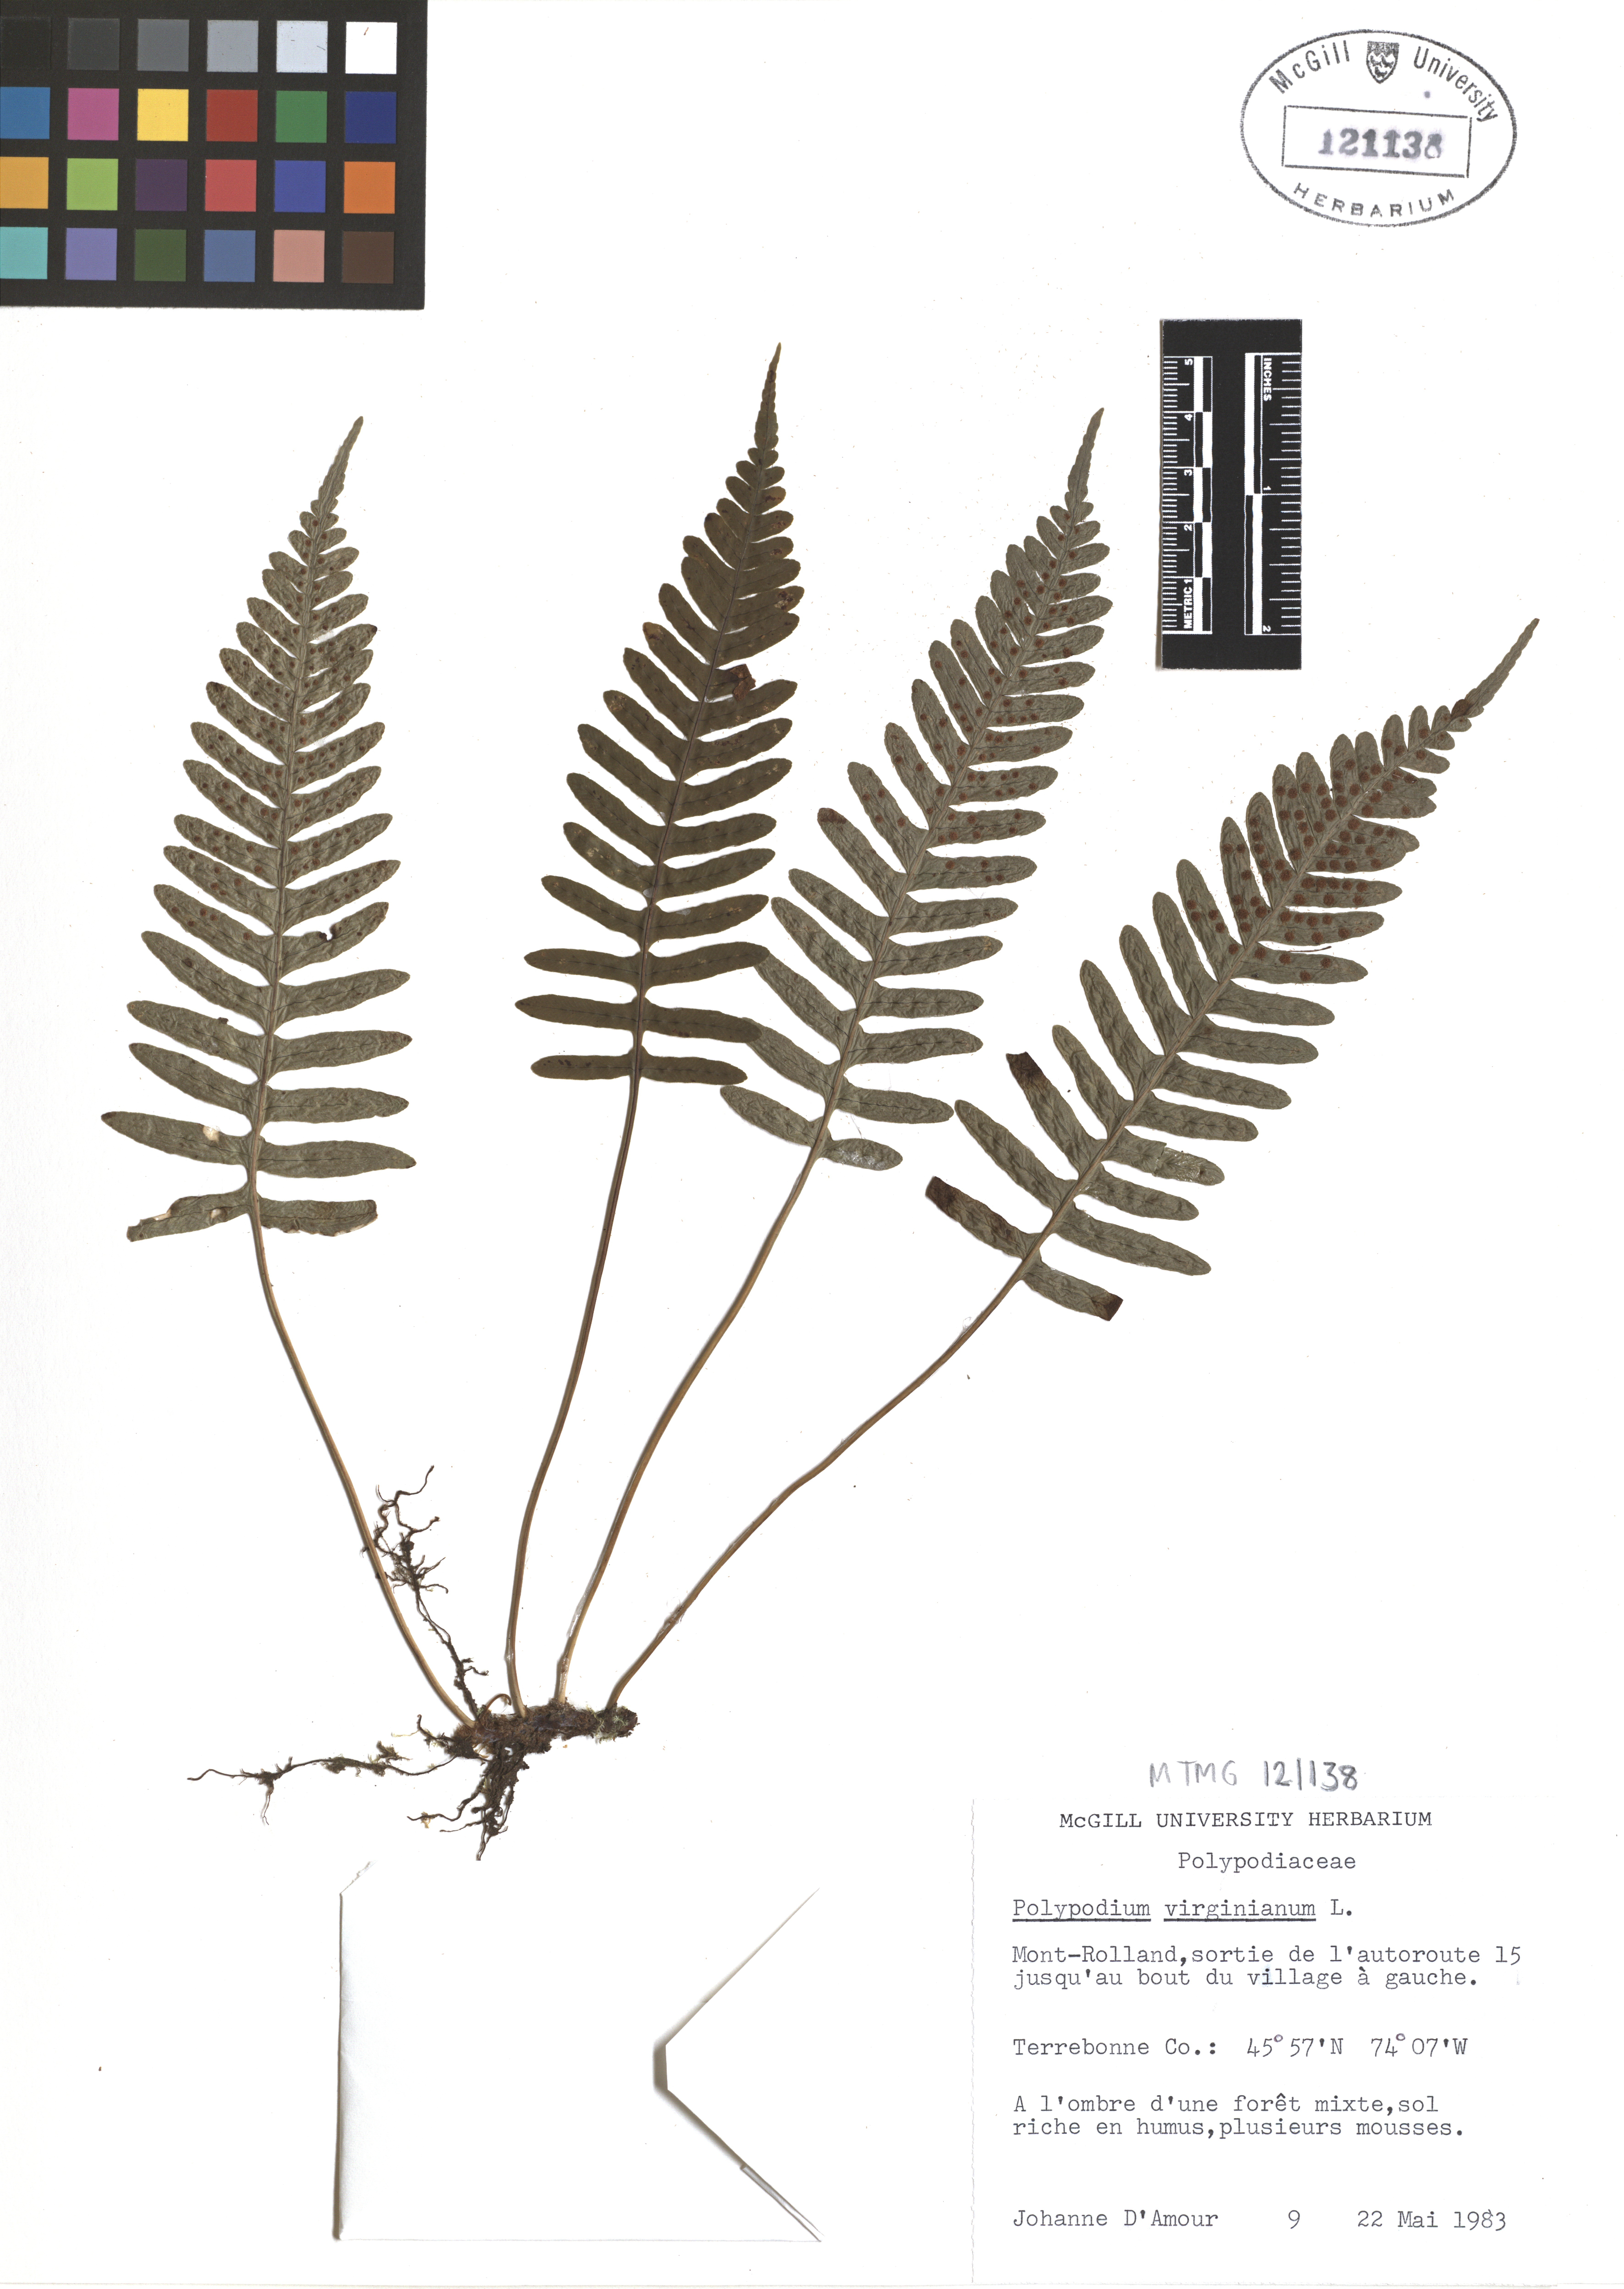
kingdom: Plantae
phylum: Tracheophyta
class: Polypodiopsida
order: Polypodiales
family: Polypodiaceae
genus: Polypodium
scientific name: Polypodium virginianum
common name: American wall fern
